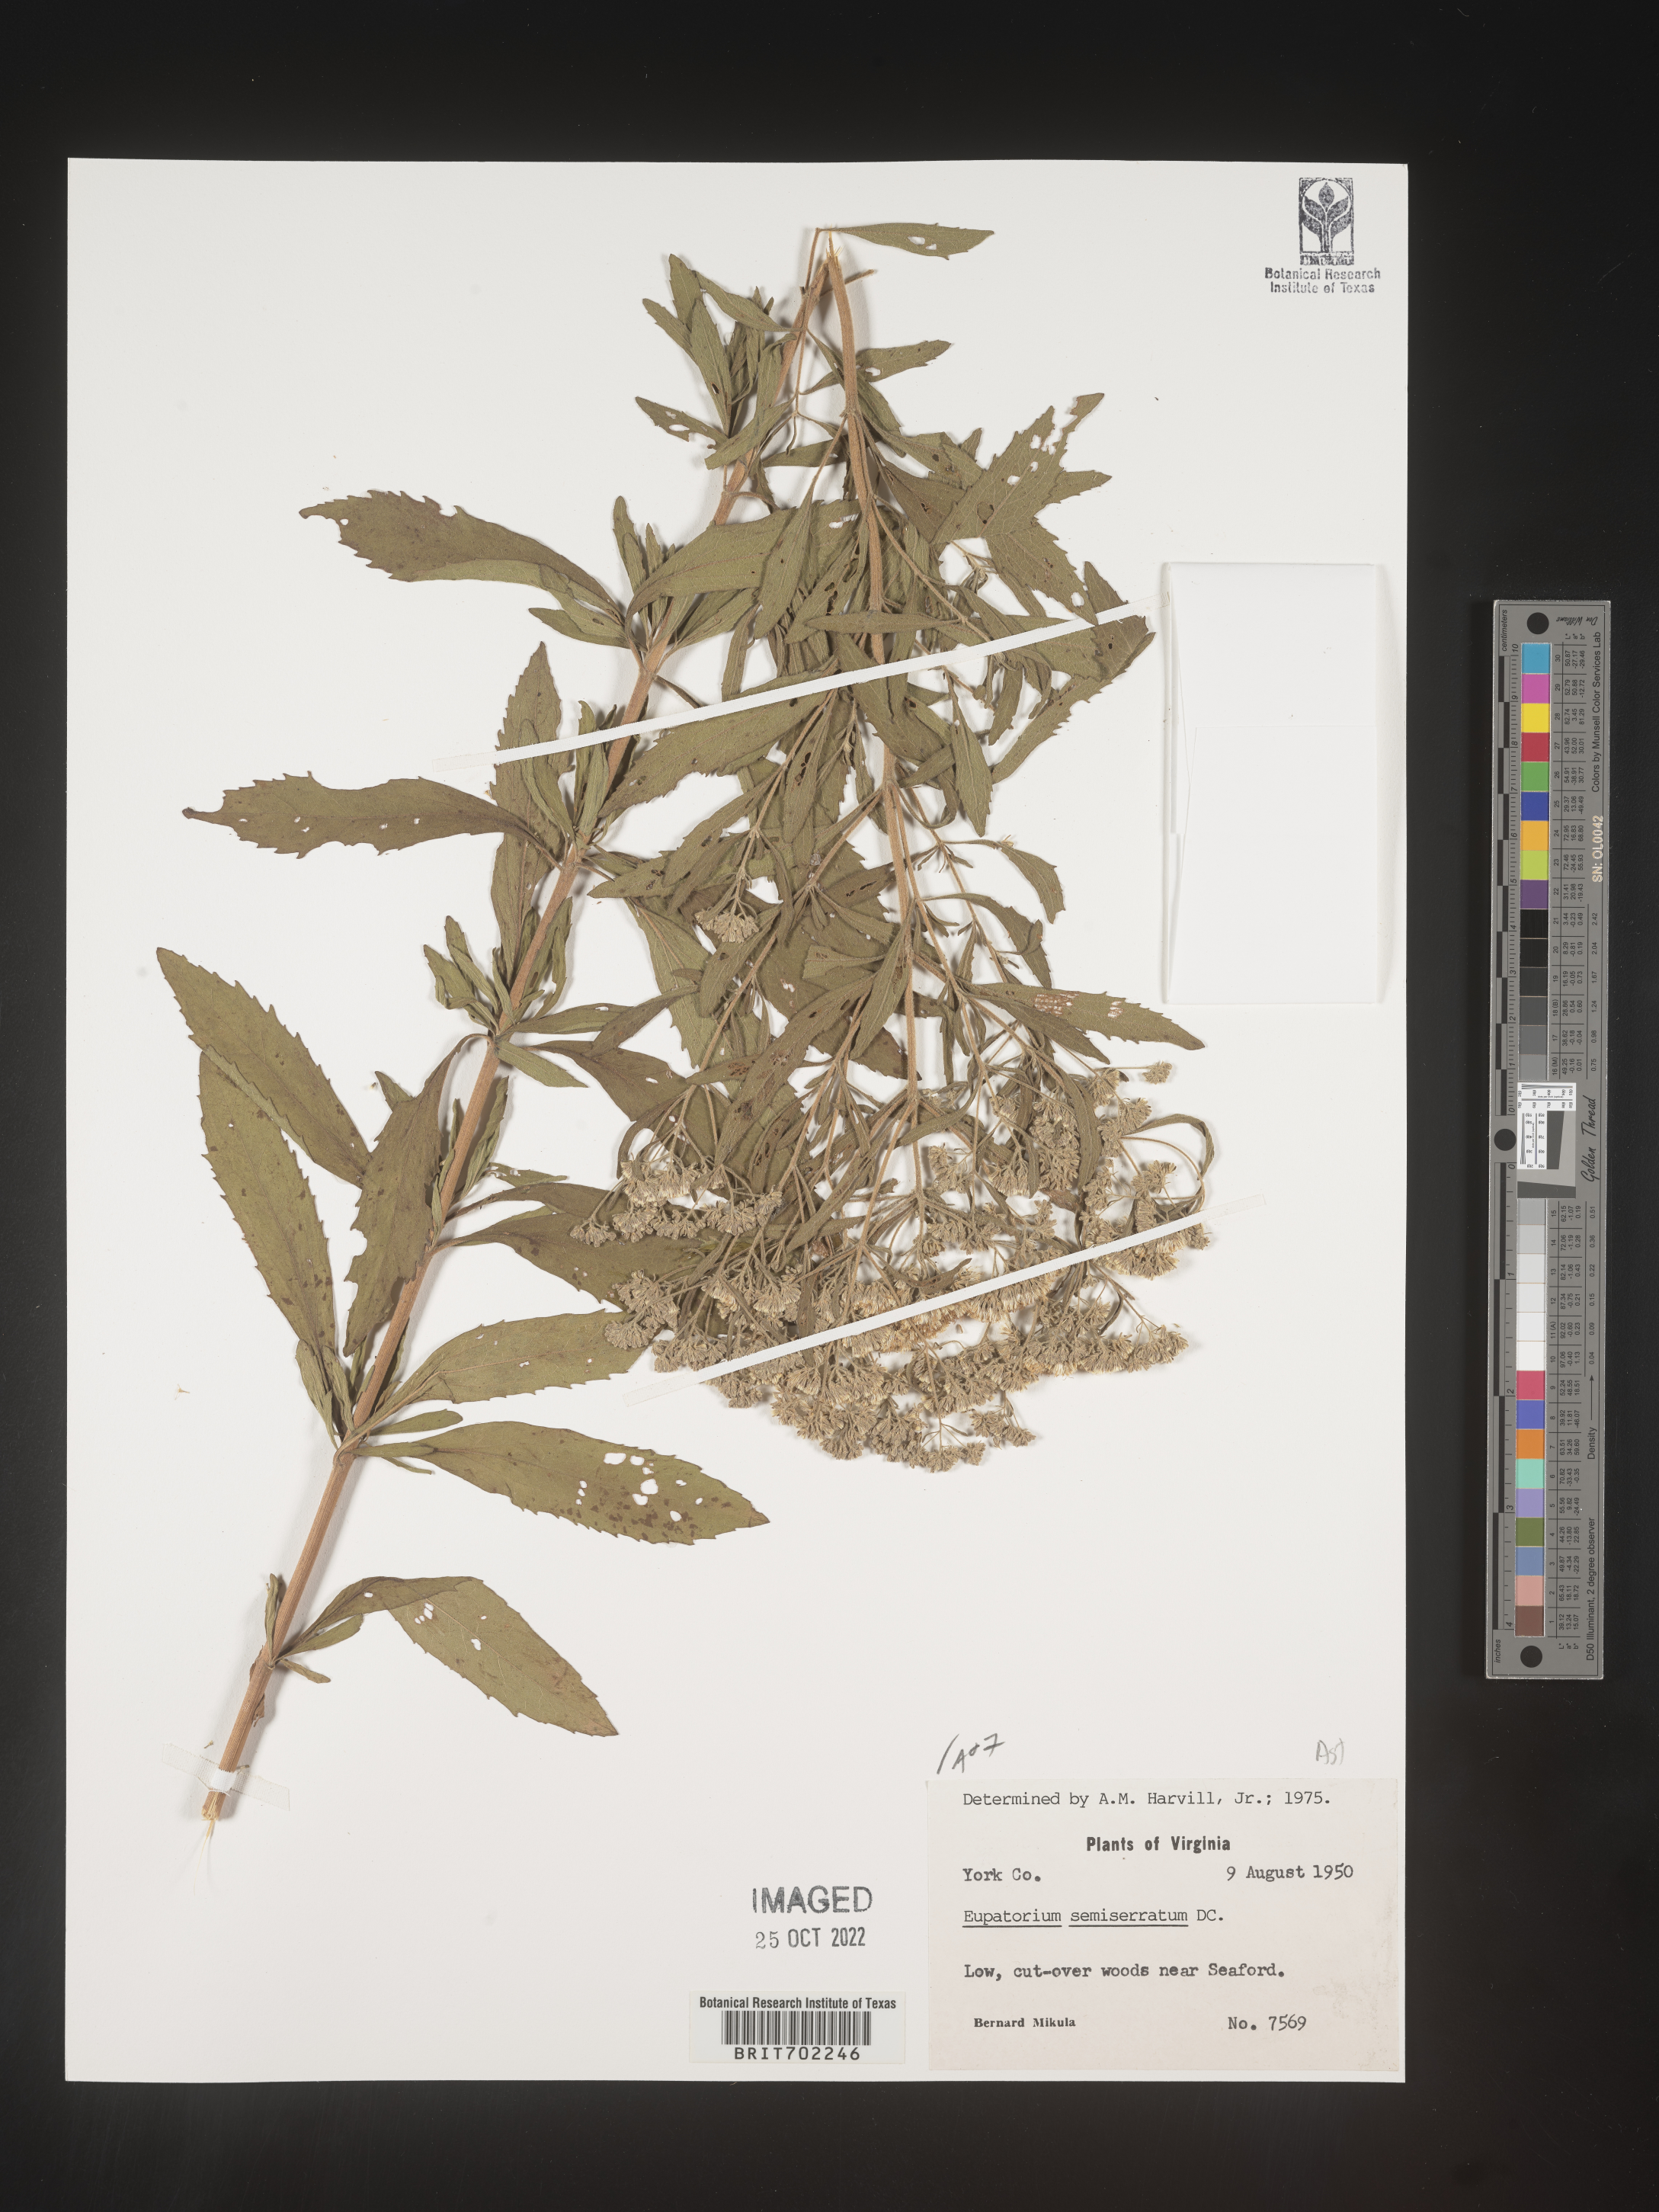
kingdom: Plantae
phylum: Tracheophyta
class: Magnoliopsida
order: Asterales
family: Asteraceae
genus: Eupatorium
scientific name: Eupatorium semiserratum
